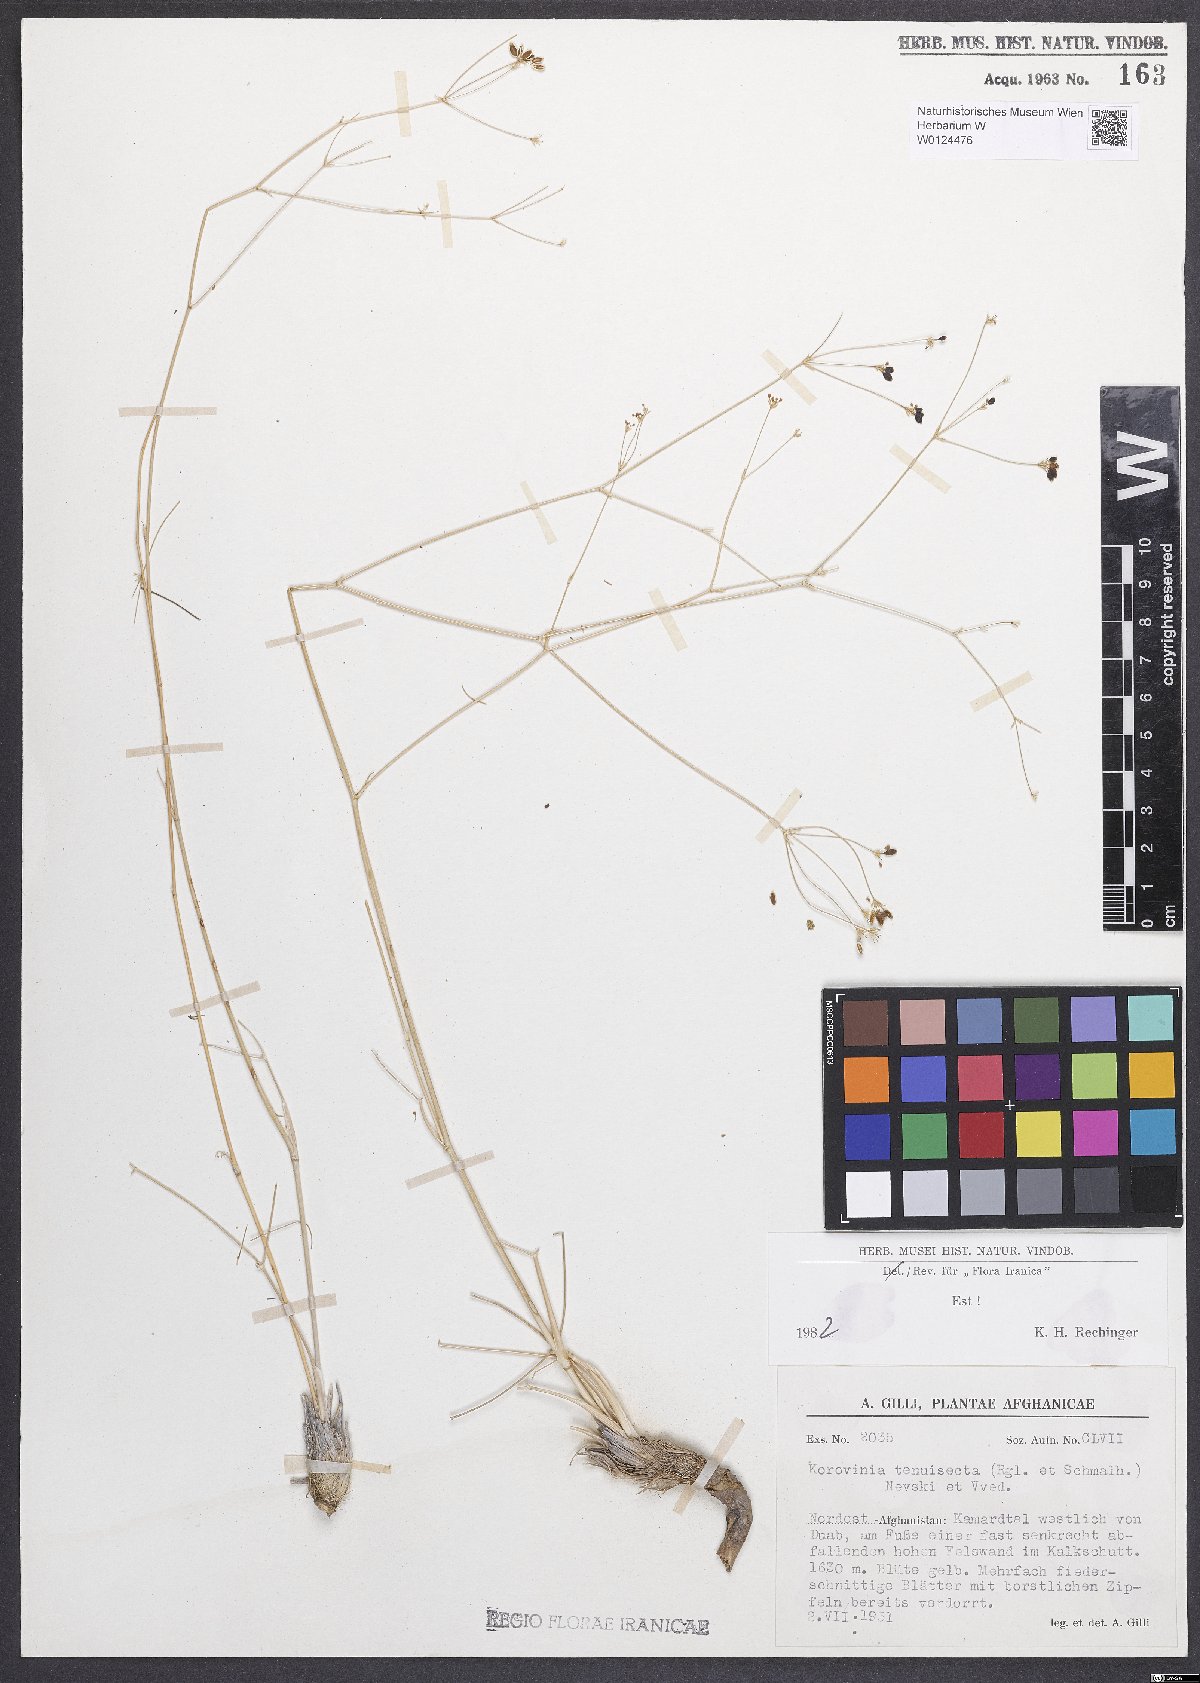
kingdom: Plantae
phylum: Tracheophyta
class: Magnoliopsida
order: Apiales
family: Apiaceae
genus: Galagania
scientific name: Galagania tenuisecta
